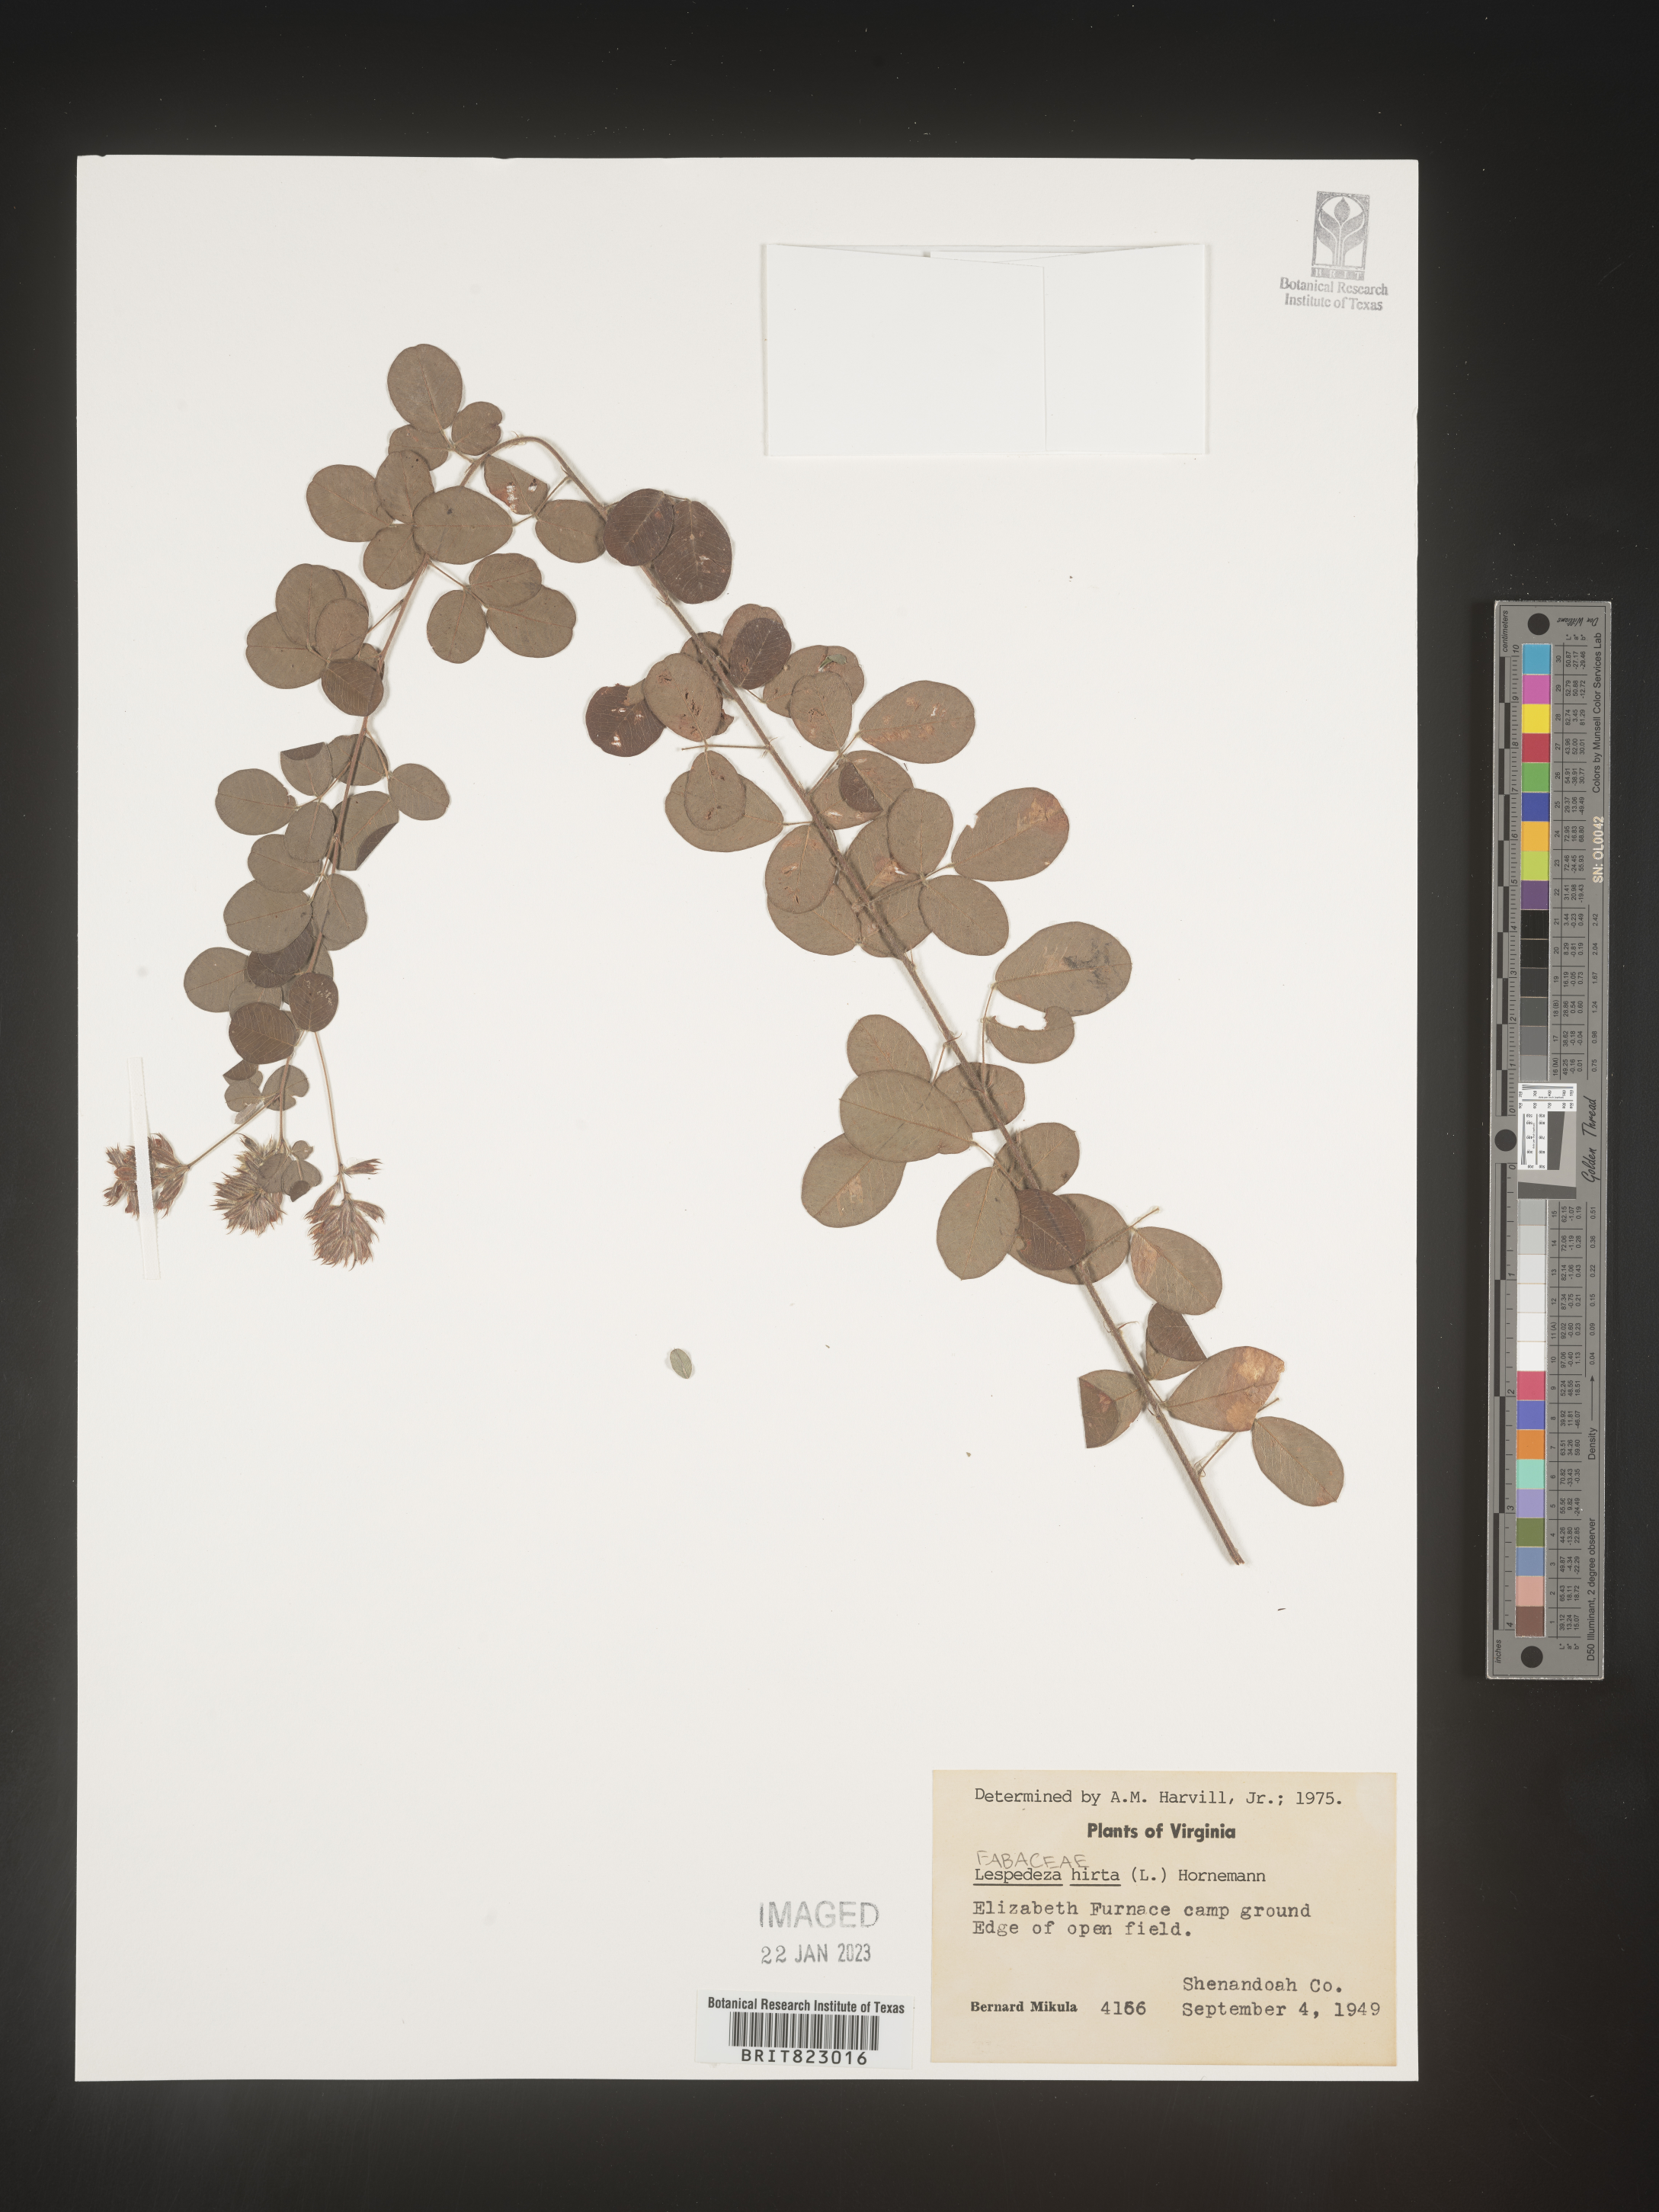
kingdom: Plantae
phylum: Tracheophyta
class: Magnoliopsida
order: Fabales
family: Fabaceae
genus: Lespedeza
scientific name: Lespedeza hirta
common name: Hairy lespedeza
